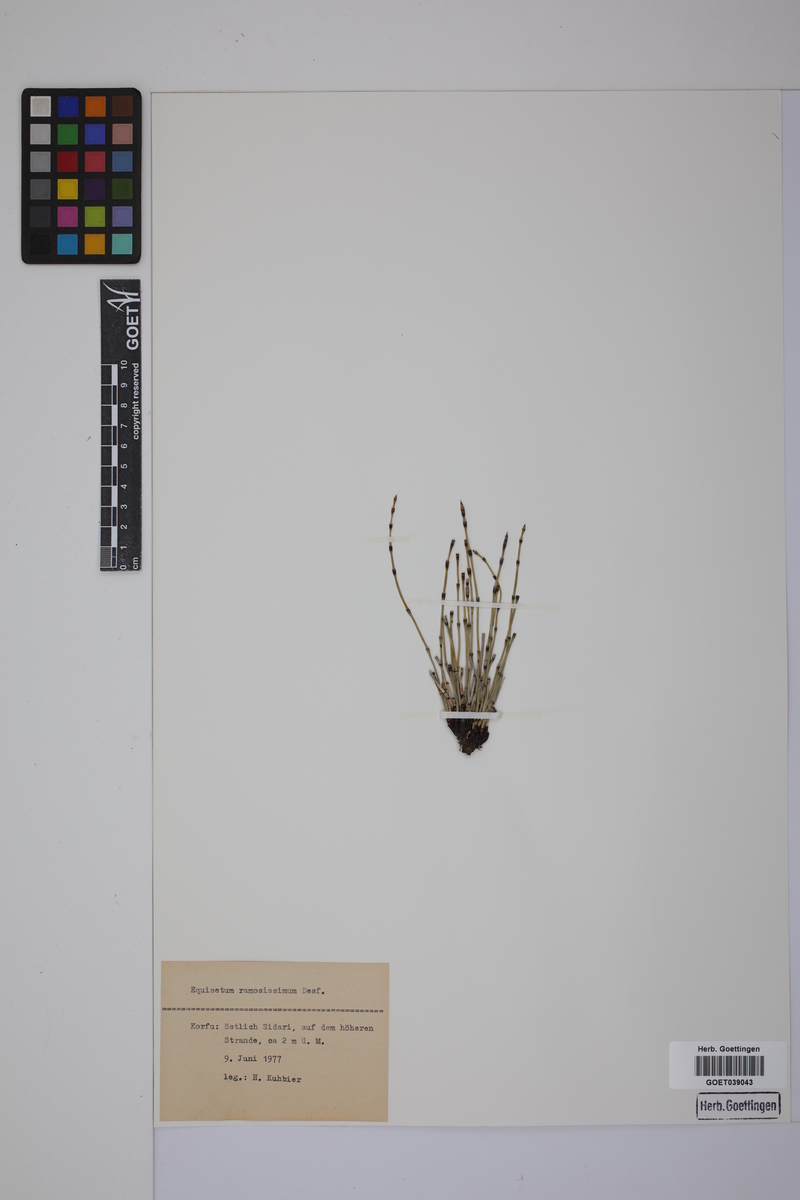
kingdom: Plantae
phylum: Tracheophyta
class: Polypodiopsida
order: Equisetales
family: Equisetaceae
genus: Equisetum
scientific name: Equisetum giganteum
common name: Giant horsetail
